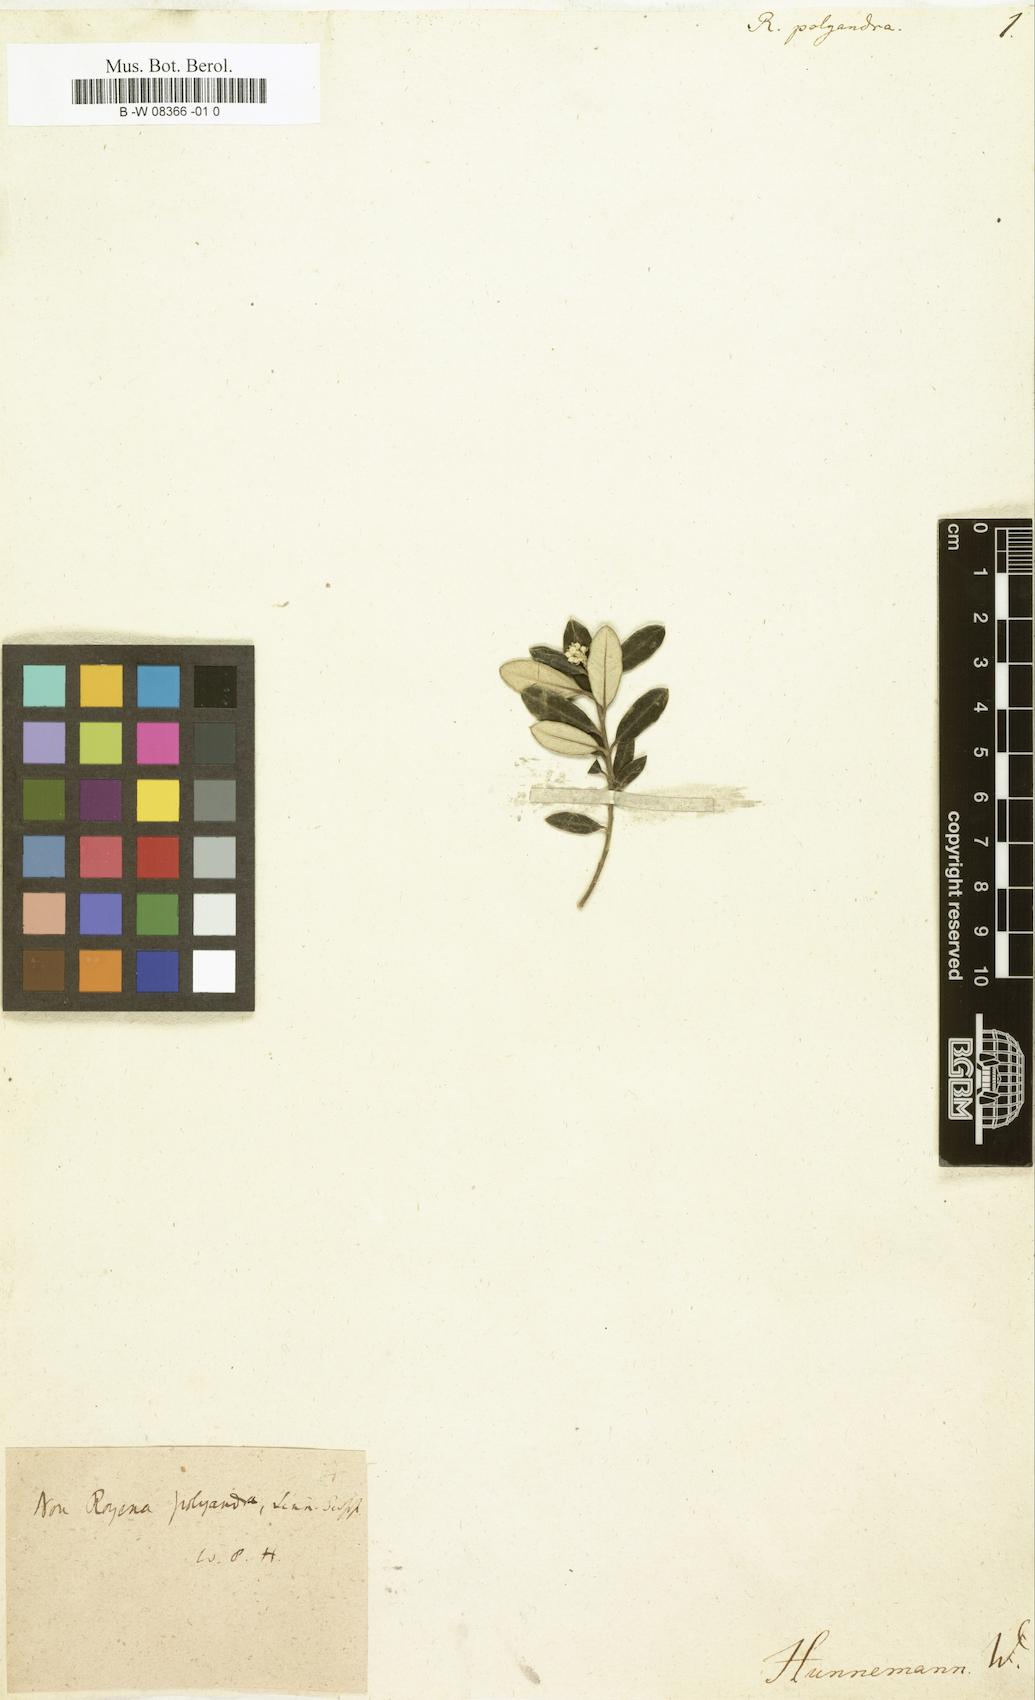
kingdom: Plantae
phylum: Tracheophyta
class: Magnoliopsida
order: Ericales
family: Ebenaceae
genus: Euclea
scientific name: Euclea polyandra
